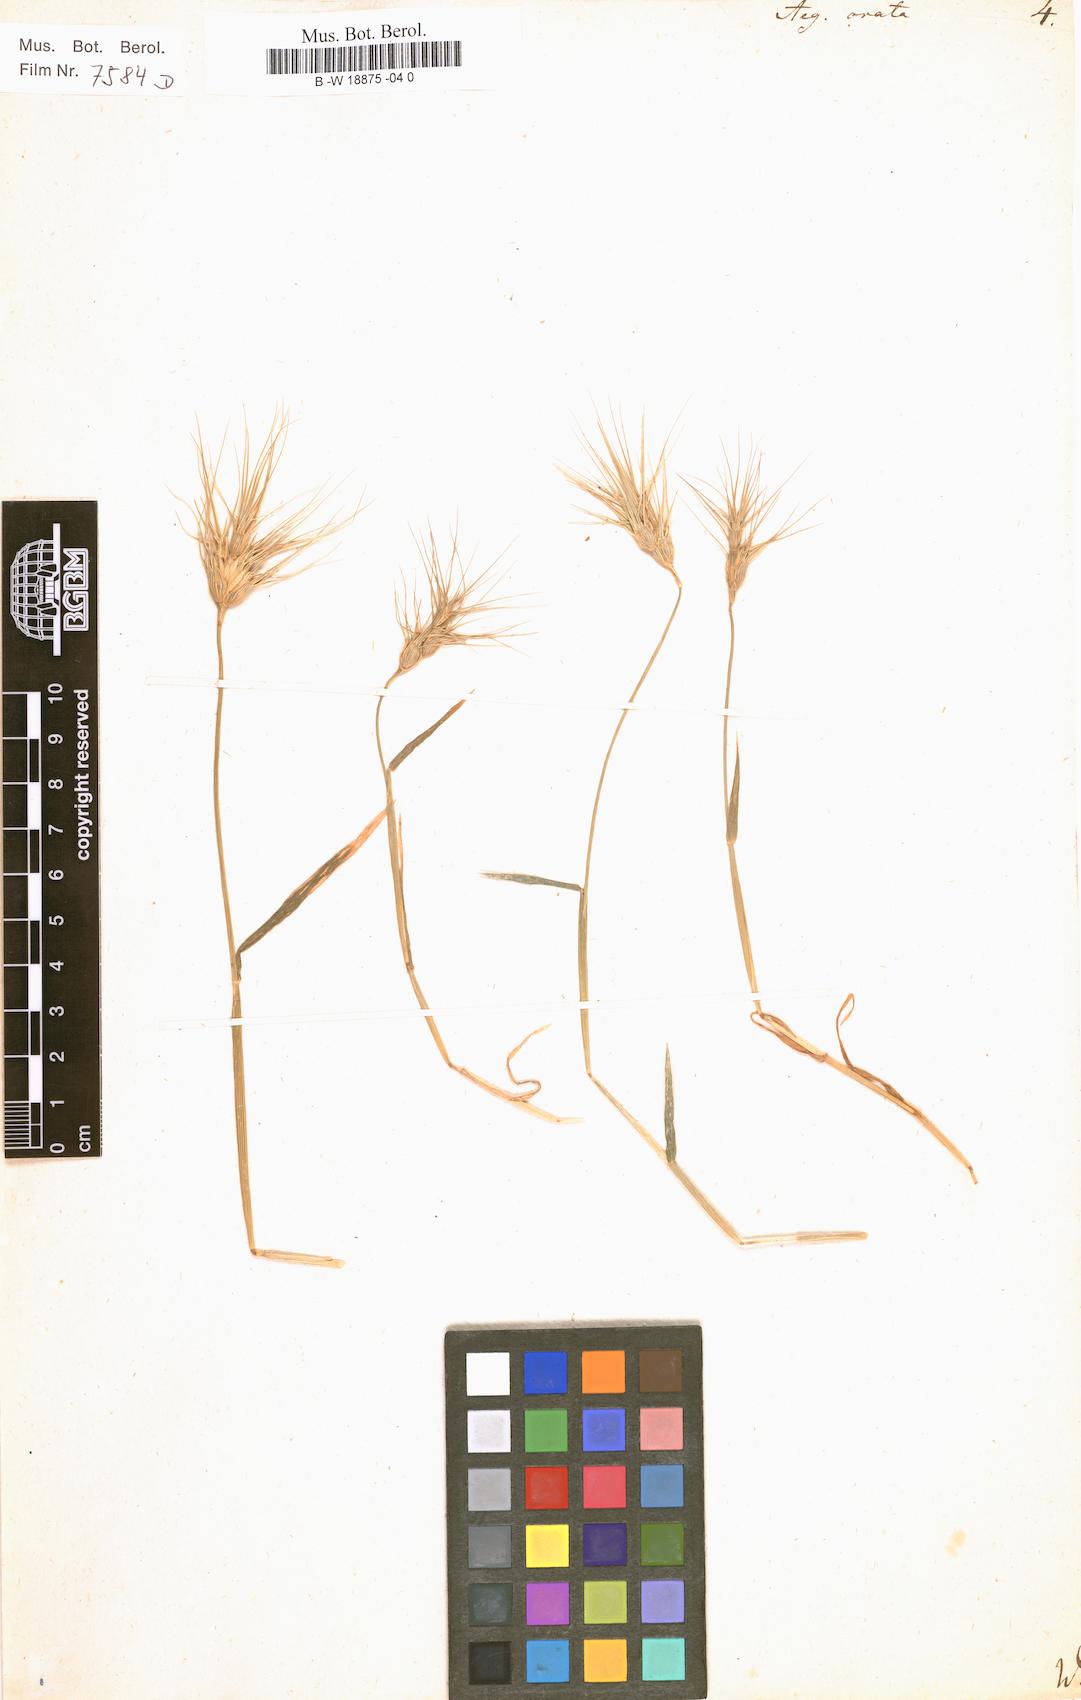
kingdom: Plantae
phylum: Tracheophyta
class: Liliopsida
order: Poales
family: Poaceae
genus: Aegilops
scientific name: Aegilops neglecta
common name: Three-awn goat grass
